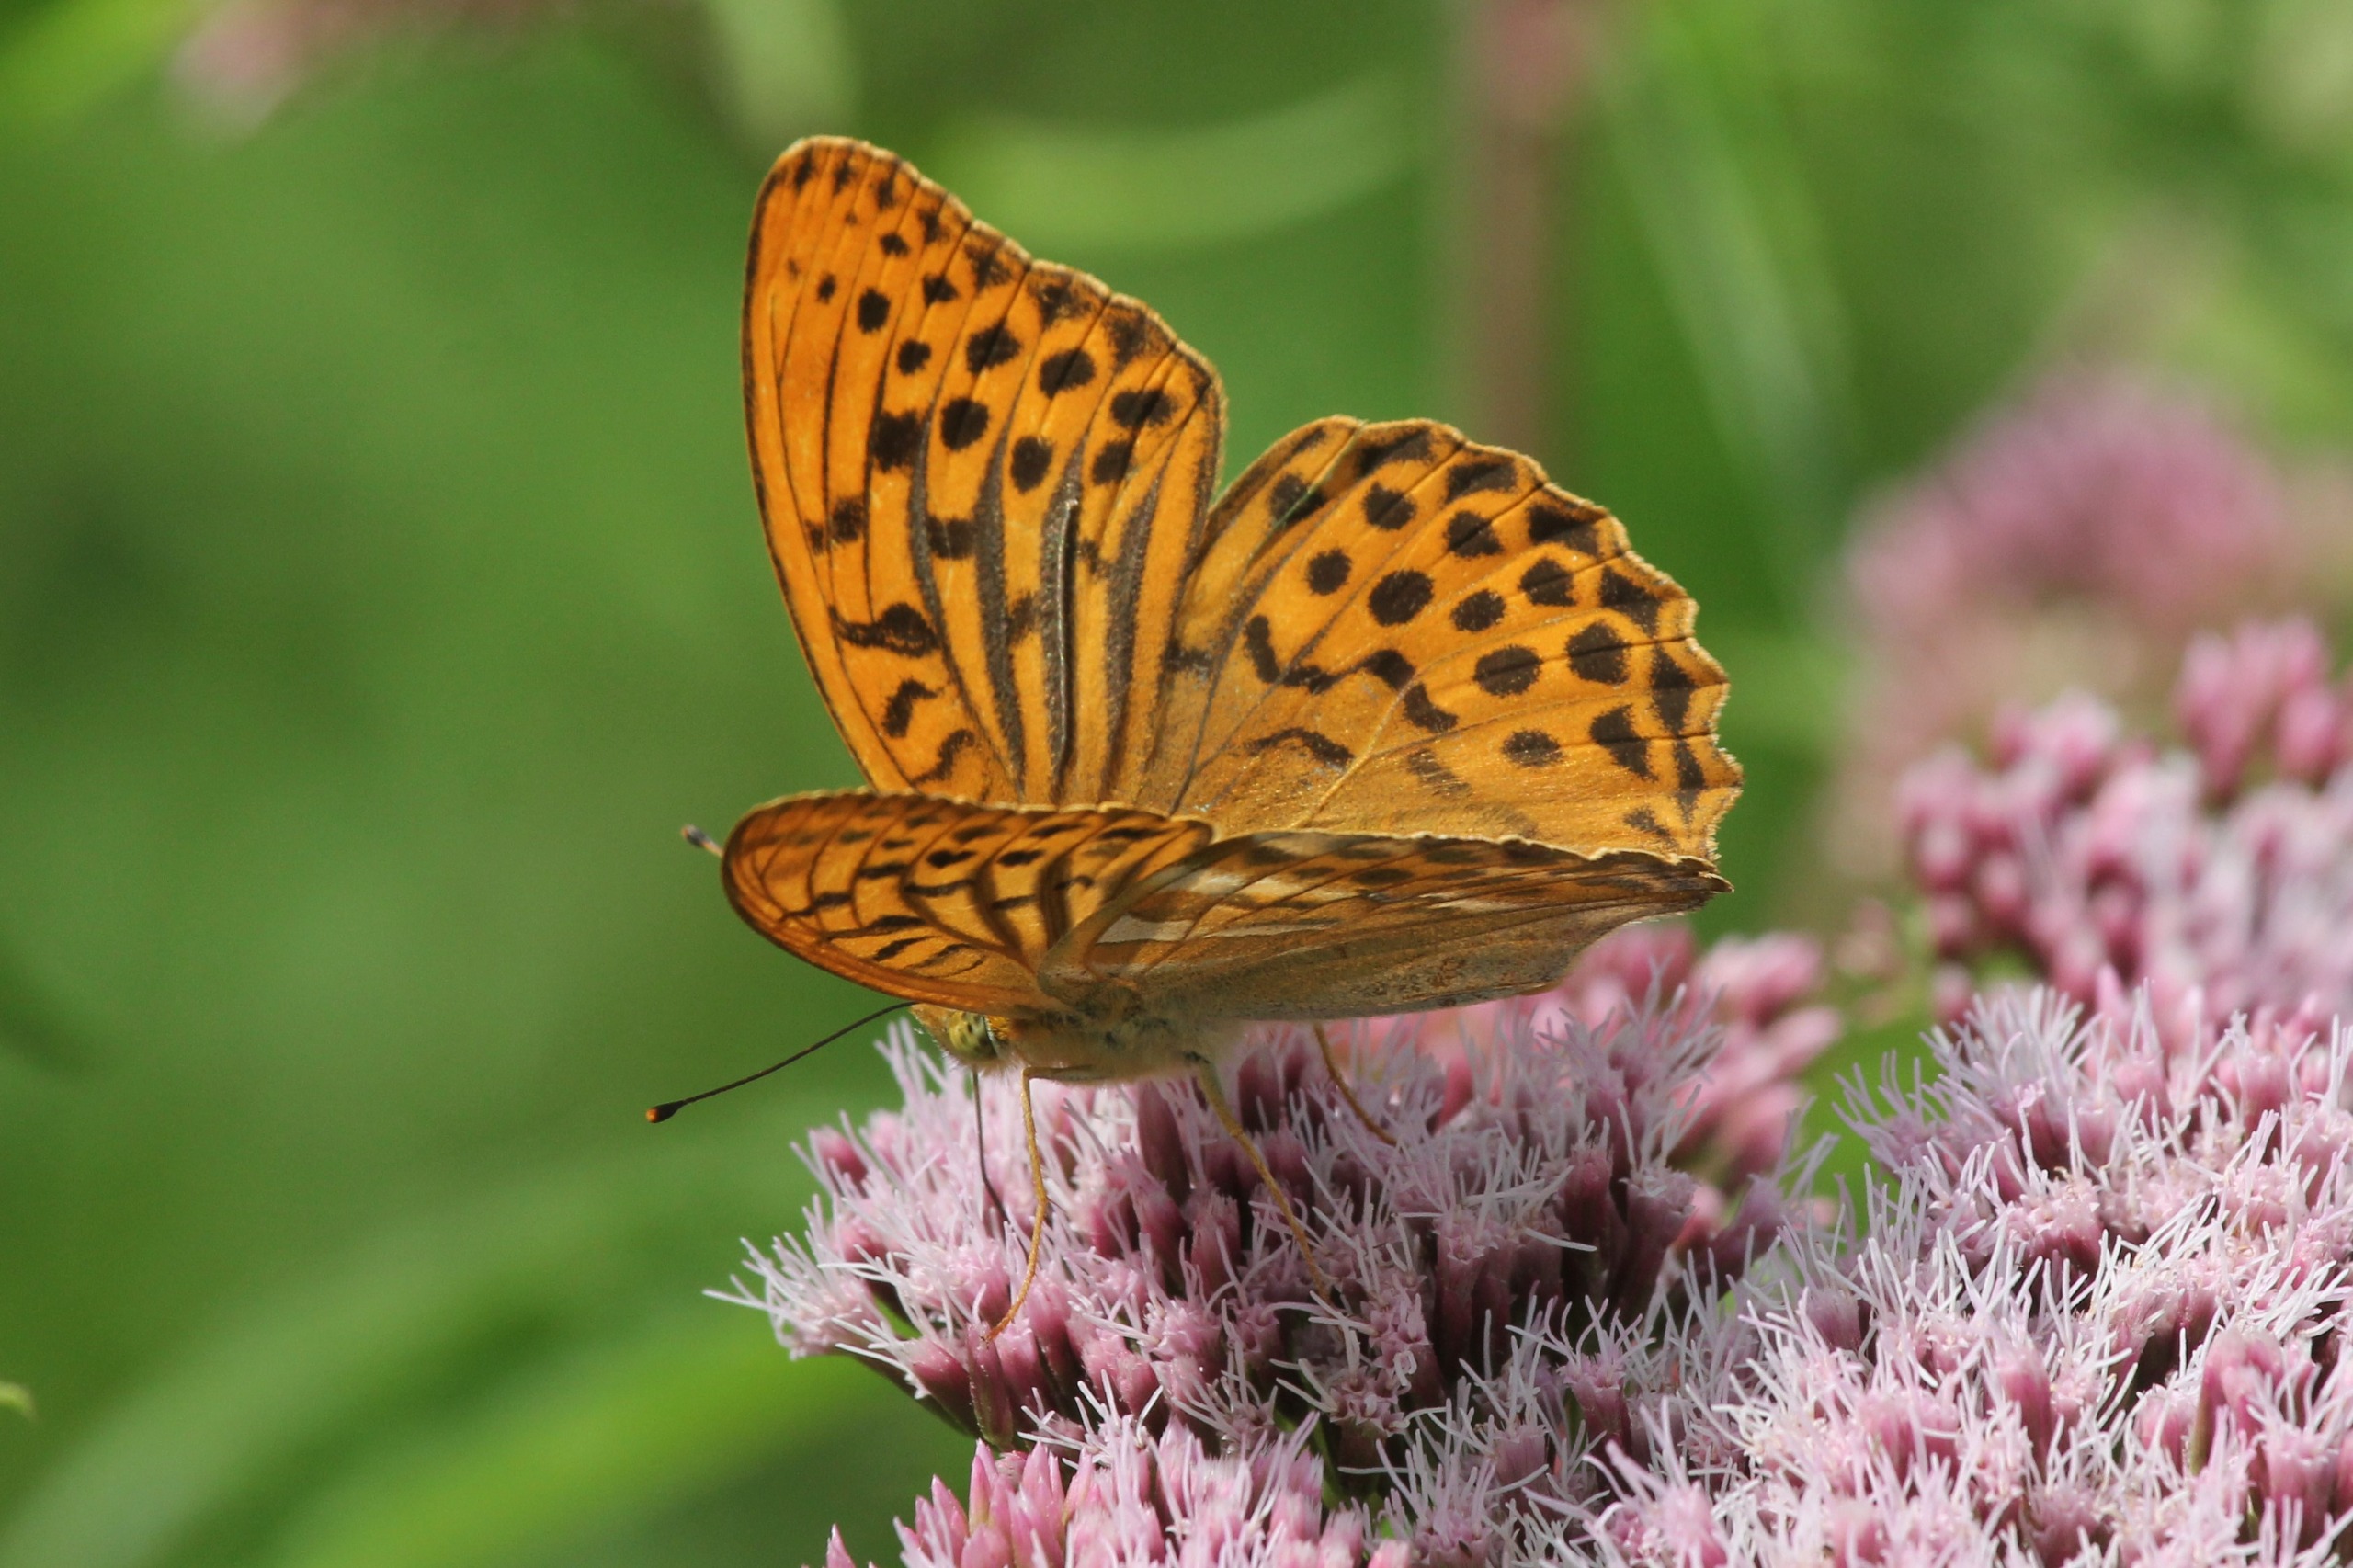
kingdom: Animalia
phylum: Arthropoda
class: Insecta
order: Lepidoptera
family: Nymphalidae
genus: Argynnis
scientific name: Argynnis paphia
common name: Kejserkåbe
